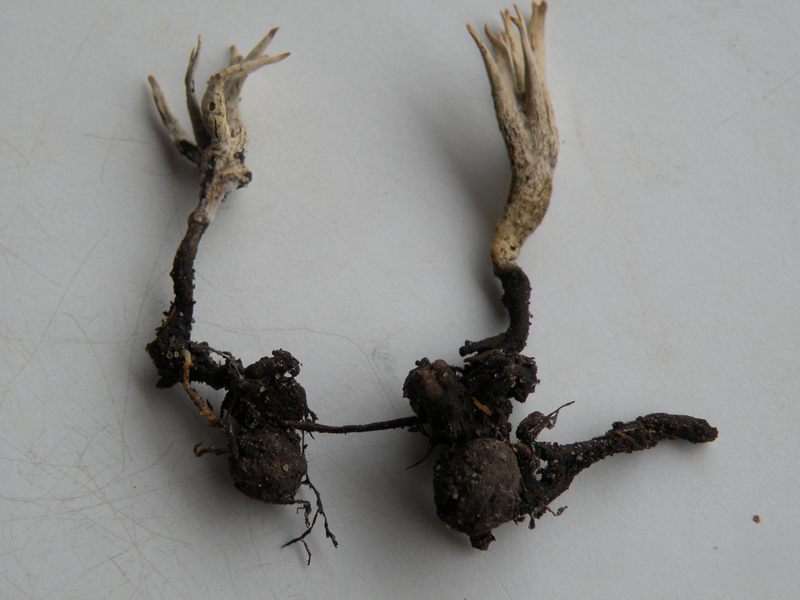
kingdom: Fungi
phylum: Ascomycota
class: Sordariomycetes
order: Xylariales
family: Xylariaceae
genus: Xylaria
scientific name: Xylaria oxyacanthae
